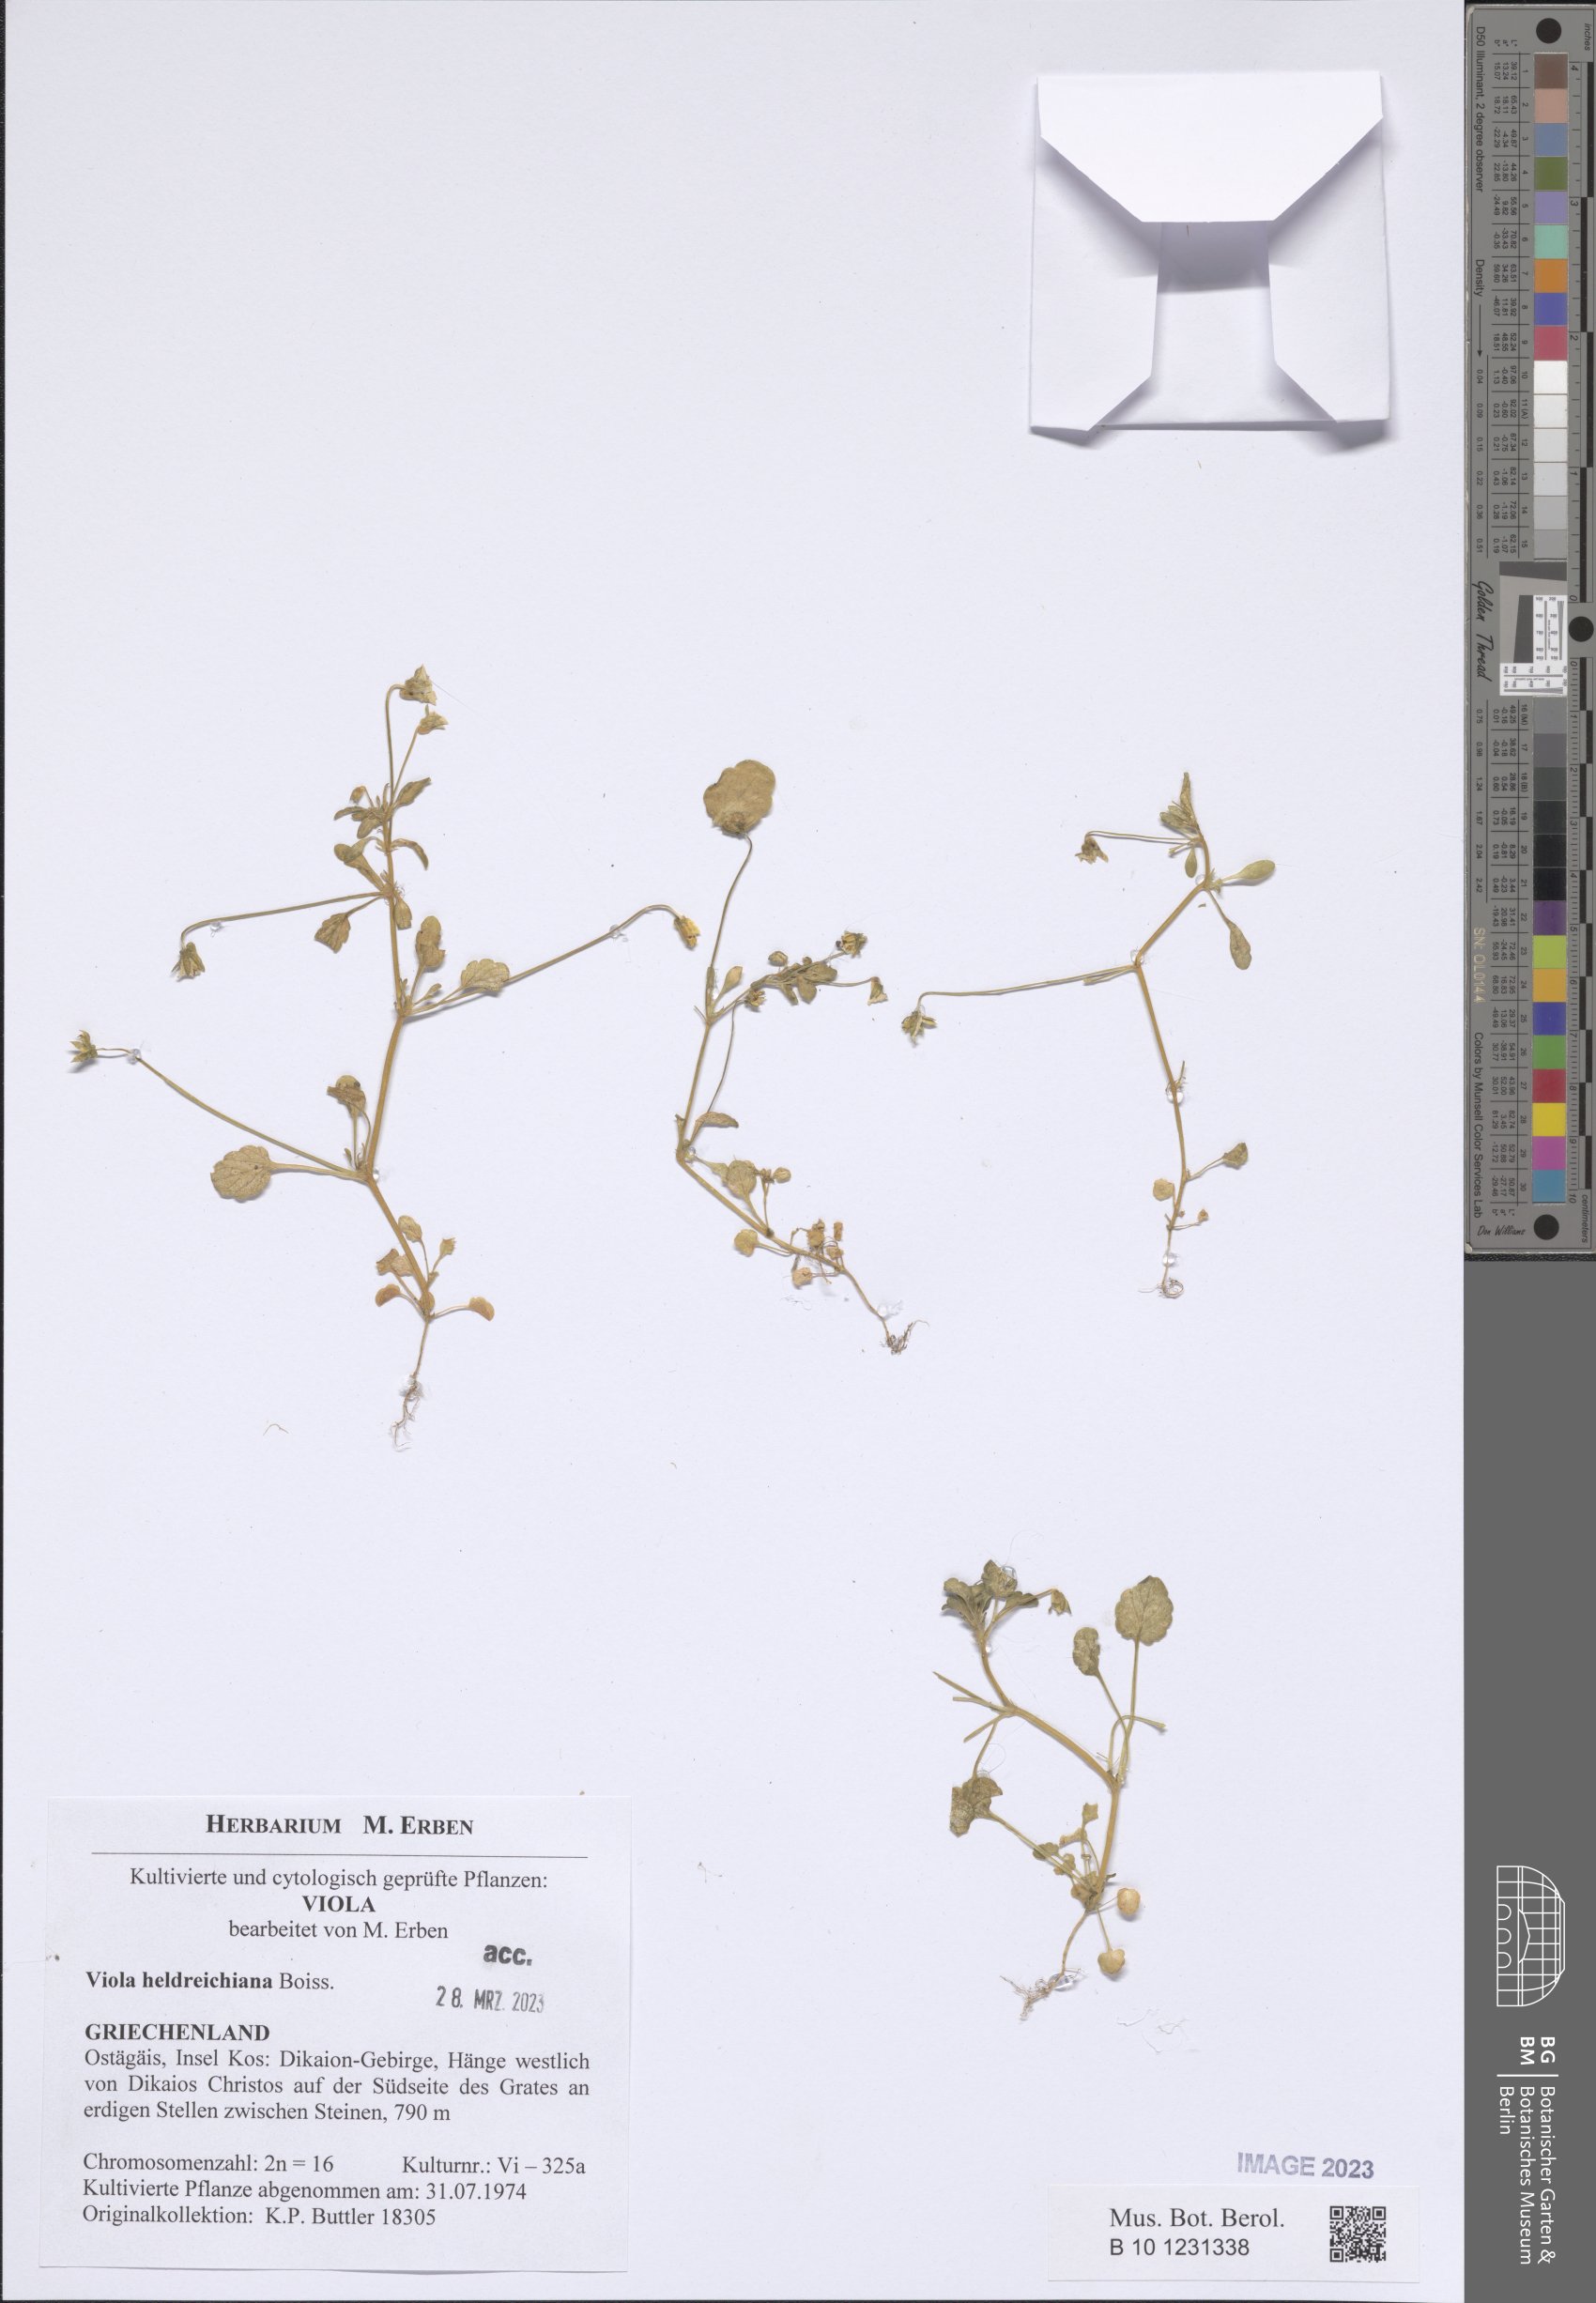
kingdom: Plantae
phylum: Tracheophyta
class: Magnoliopsida
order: Malpighiales
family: Violaceae
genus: Viola
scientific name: Viola heldreichiana
